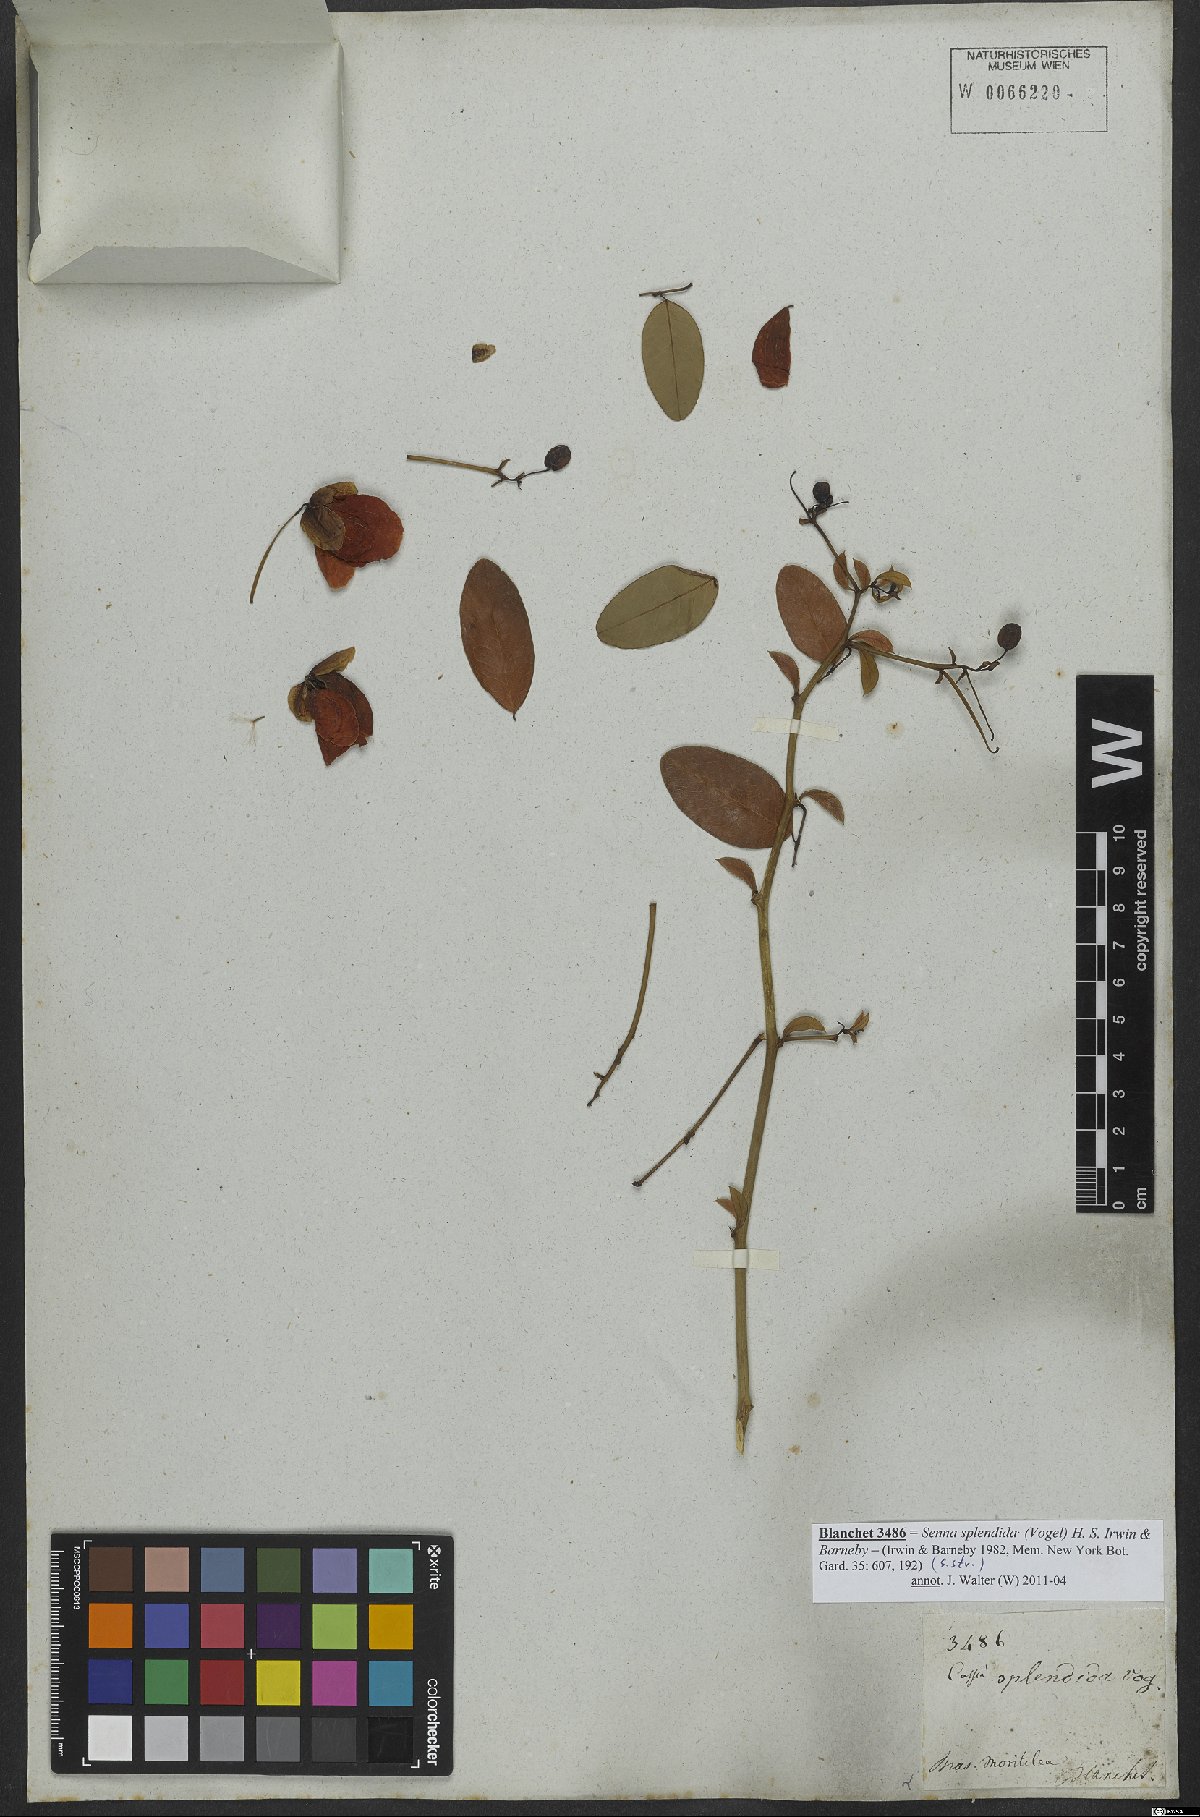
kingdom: Plantae
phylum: Tracheophyta
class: Magnoliopsida
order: Fabales
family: Fabaceae
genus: Senna
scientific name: Senna splendida
